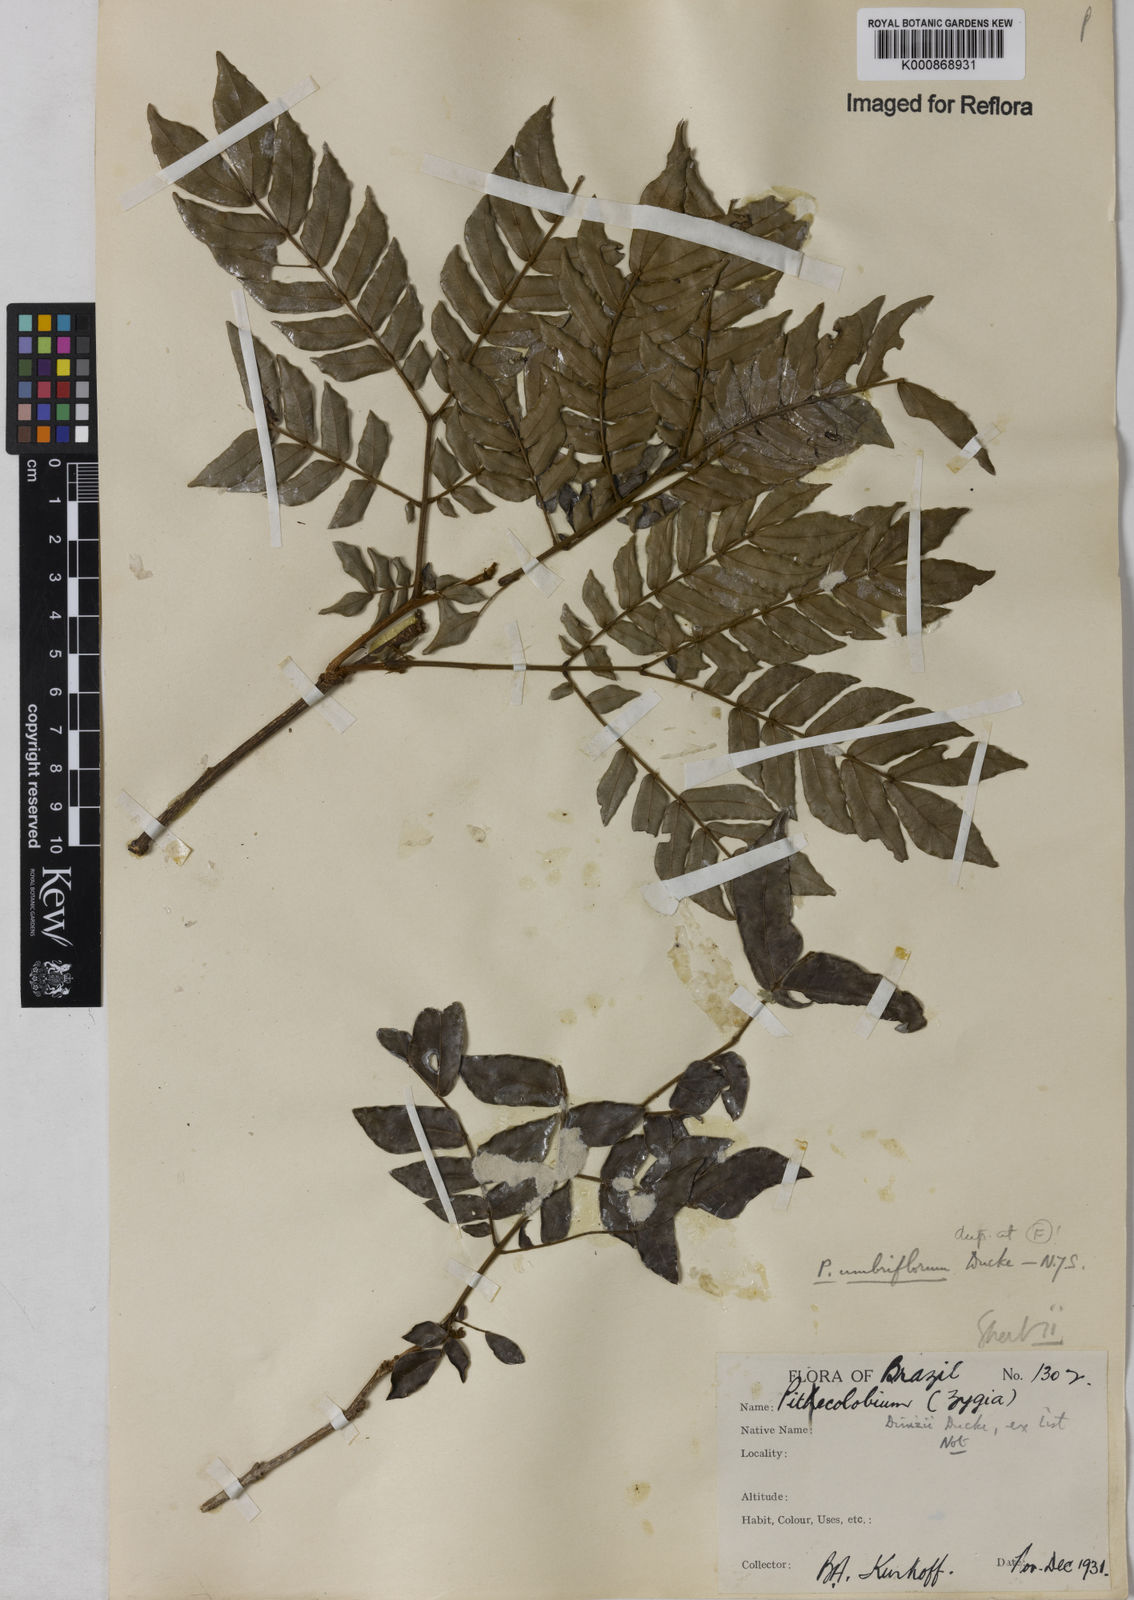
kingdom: Plantae
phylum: Tracheophyta
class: Magnoliopsida
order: Fabales
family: Fabaceae
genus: Zygia
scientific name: Zygia dinizii
